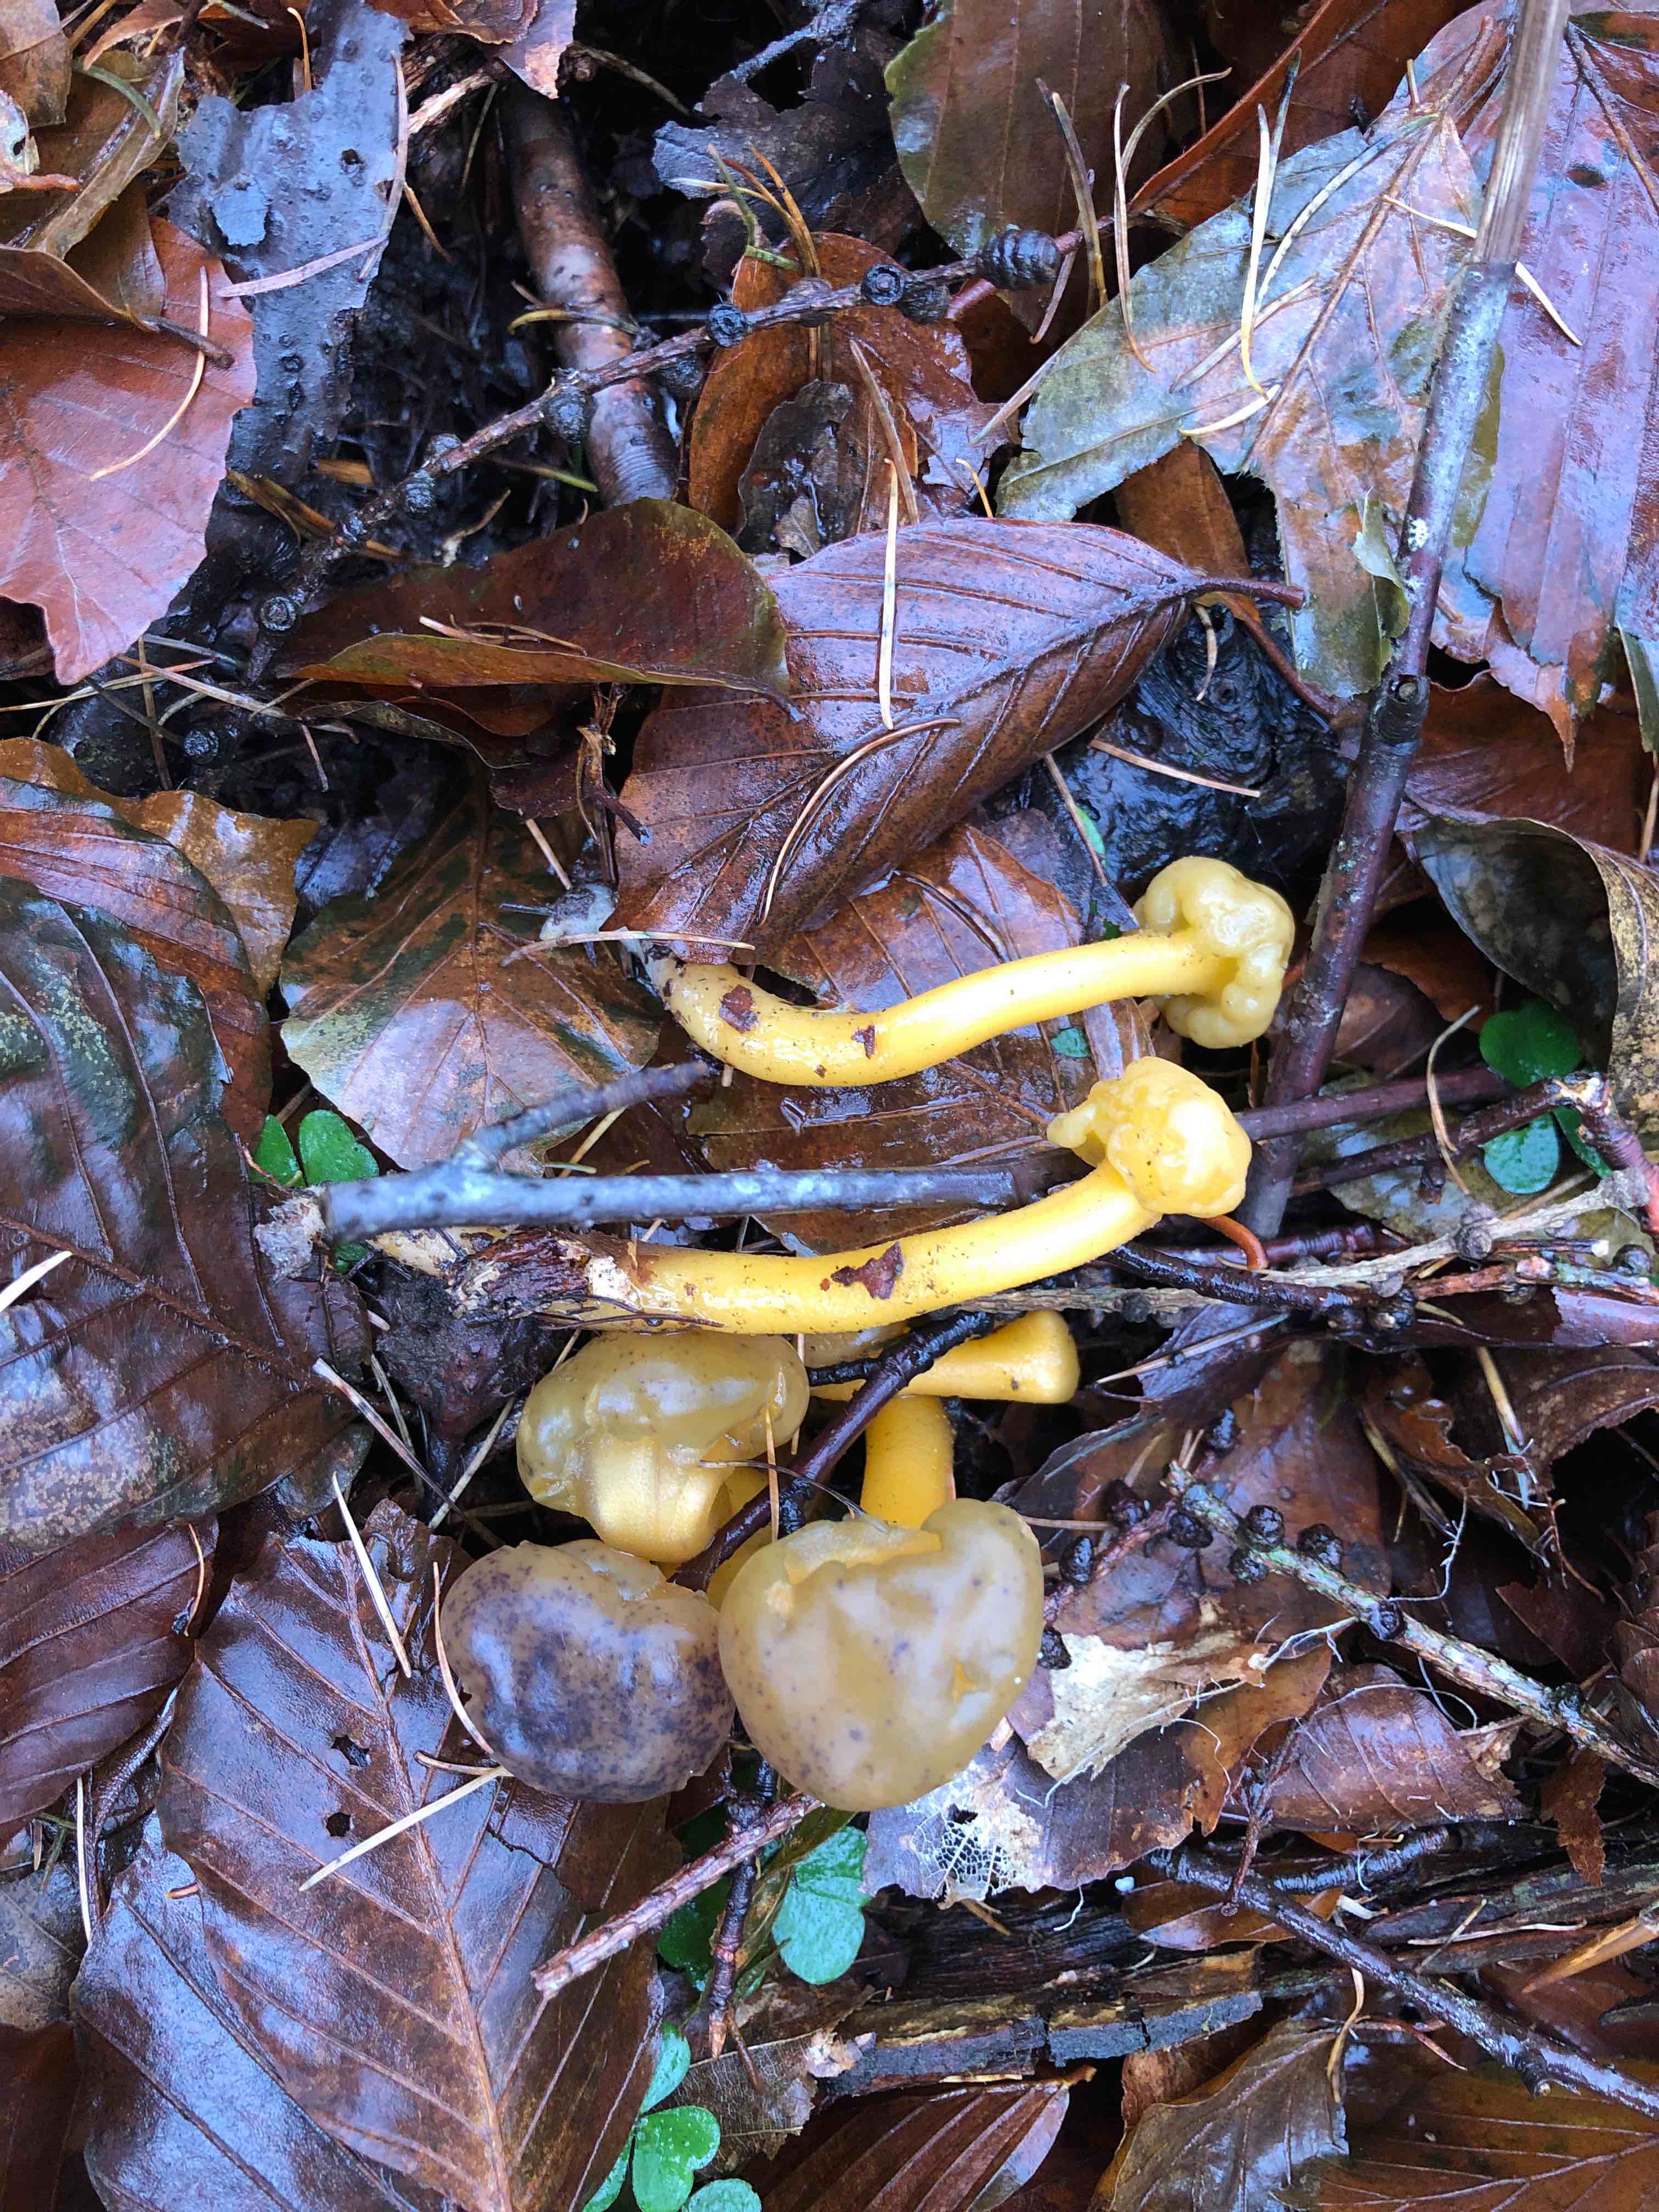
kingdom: Fungi
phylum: Ascomycota
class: Leotiomycetes
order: Leotiales
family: Leotiaceae
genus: Leotia
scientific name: Leotia lubrica
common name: ravsvamp
